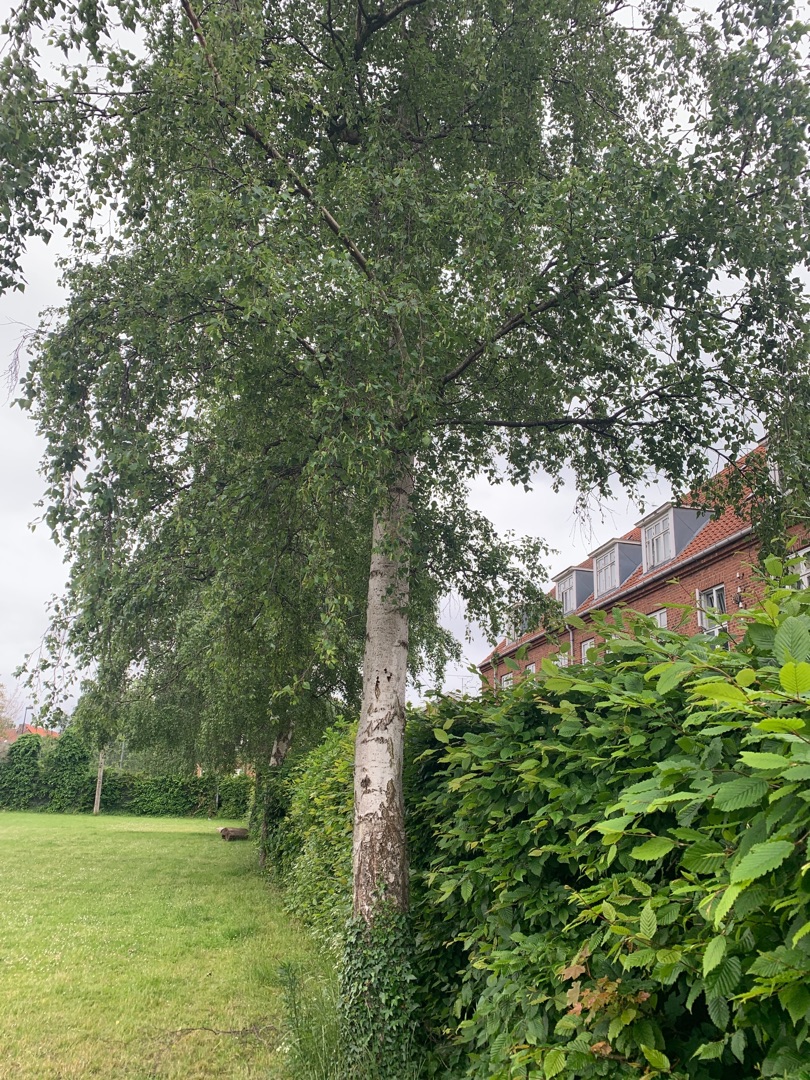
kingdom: Plantae
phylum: Tracheophyta
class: Magnoliopsida
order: Fagales
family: Betulaceae
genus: Betula
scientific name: Betula pendula
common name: Vorte-birk
